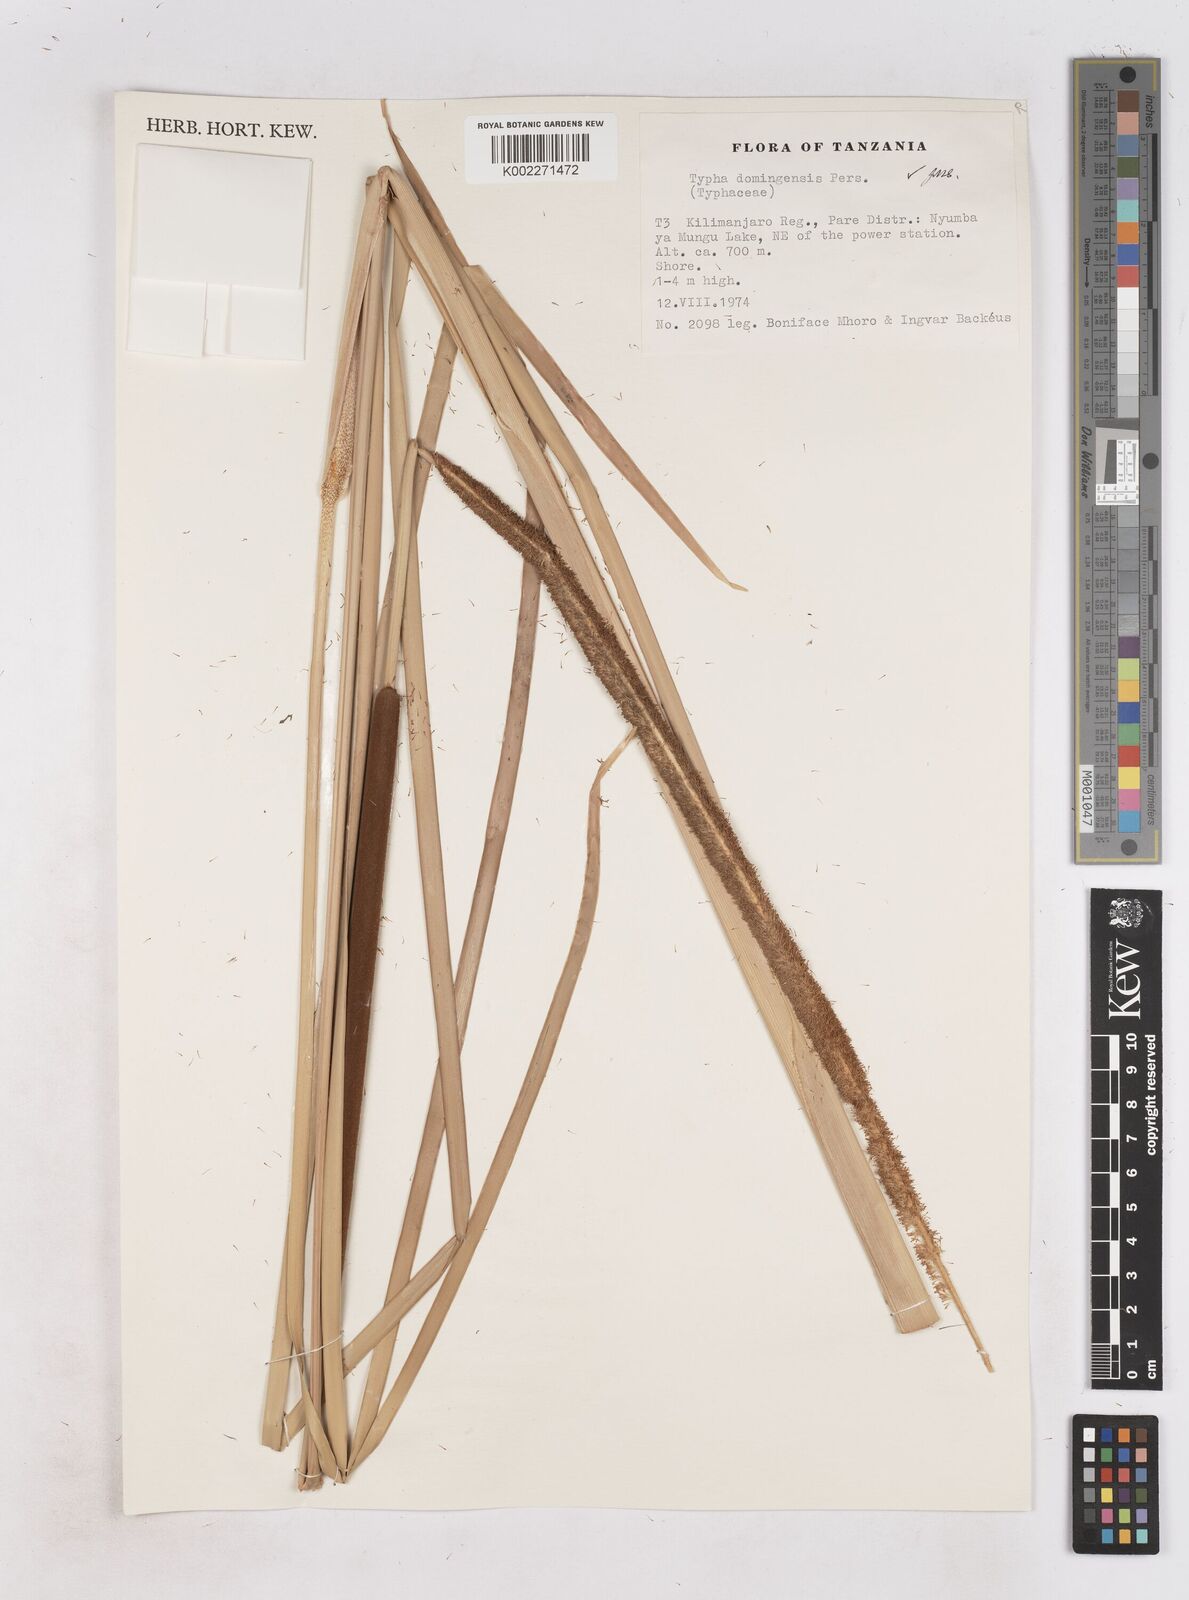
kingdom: Plantae
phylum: Tracheophyta
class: Liliopsida
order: Poales
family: Typhaceae
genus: Typha
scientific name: Typha domingensis
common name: Southern cattail
